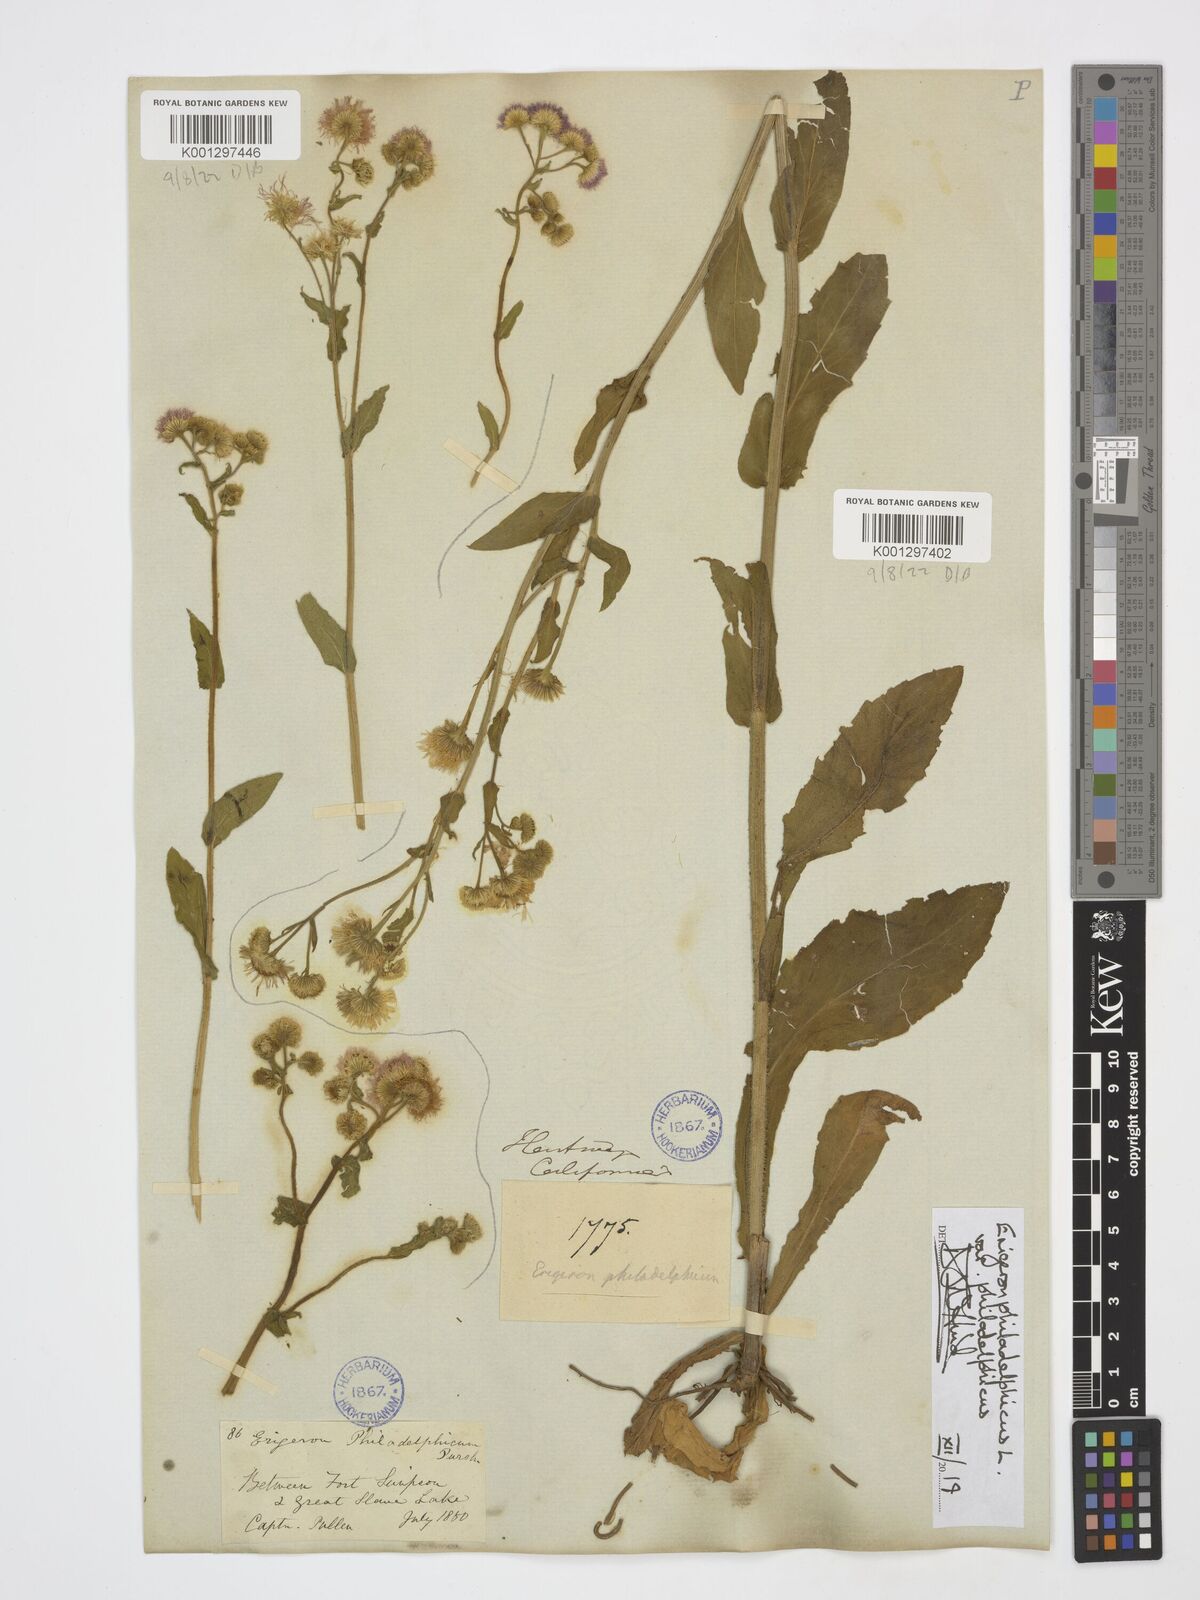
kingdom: Plantae
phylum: Tracheophyta
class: Magnoliopsida
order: Asterales
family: Asteraceae
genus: Erigeron
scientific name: Erigeron philadelphicus
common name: Robin's-plantain
